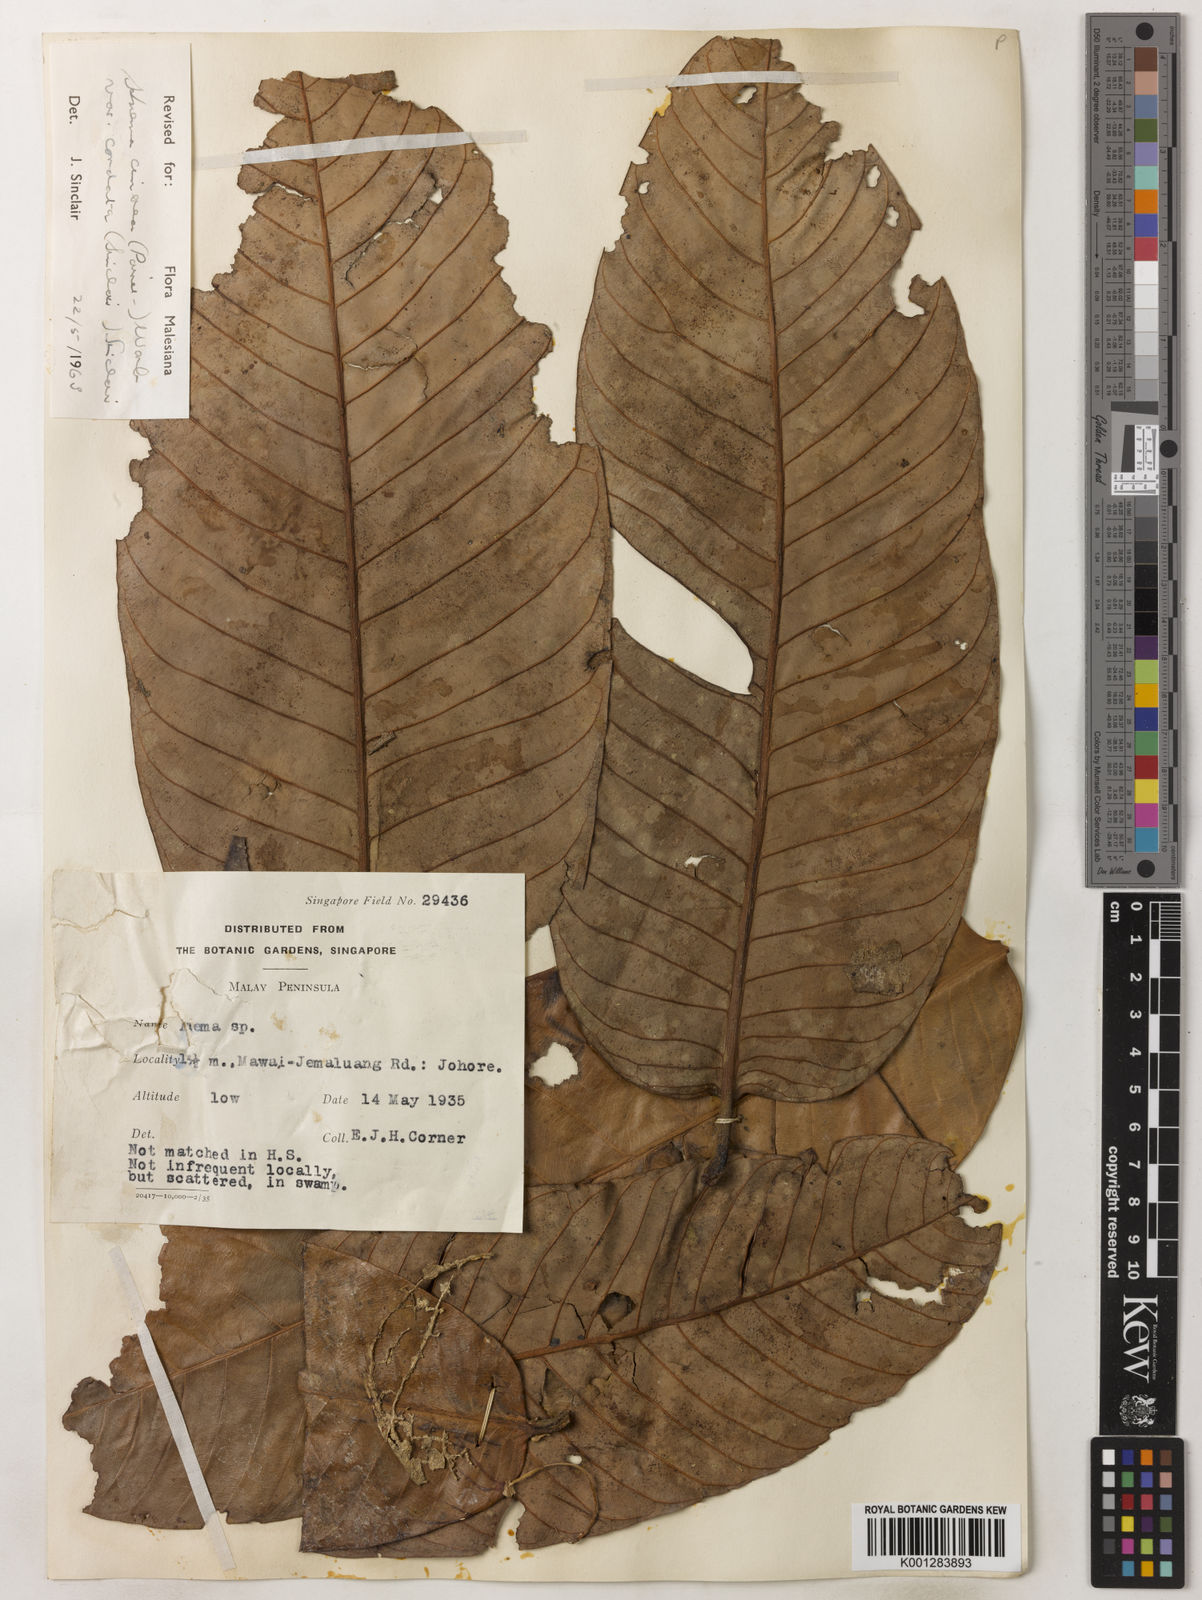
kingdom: Plantae
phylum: Tracheophyta
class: Magnoliopsida
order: Magnoliales
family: Myristicaceae
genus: Knema
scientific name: Knema
